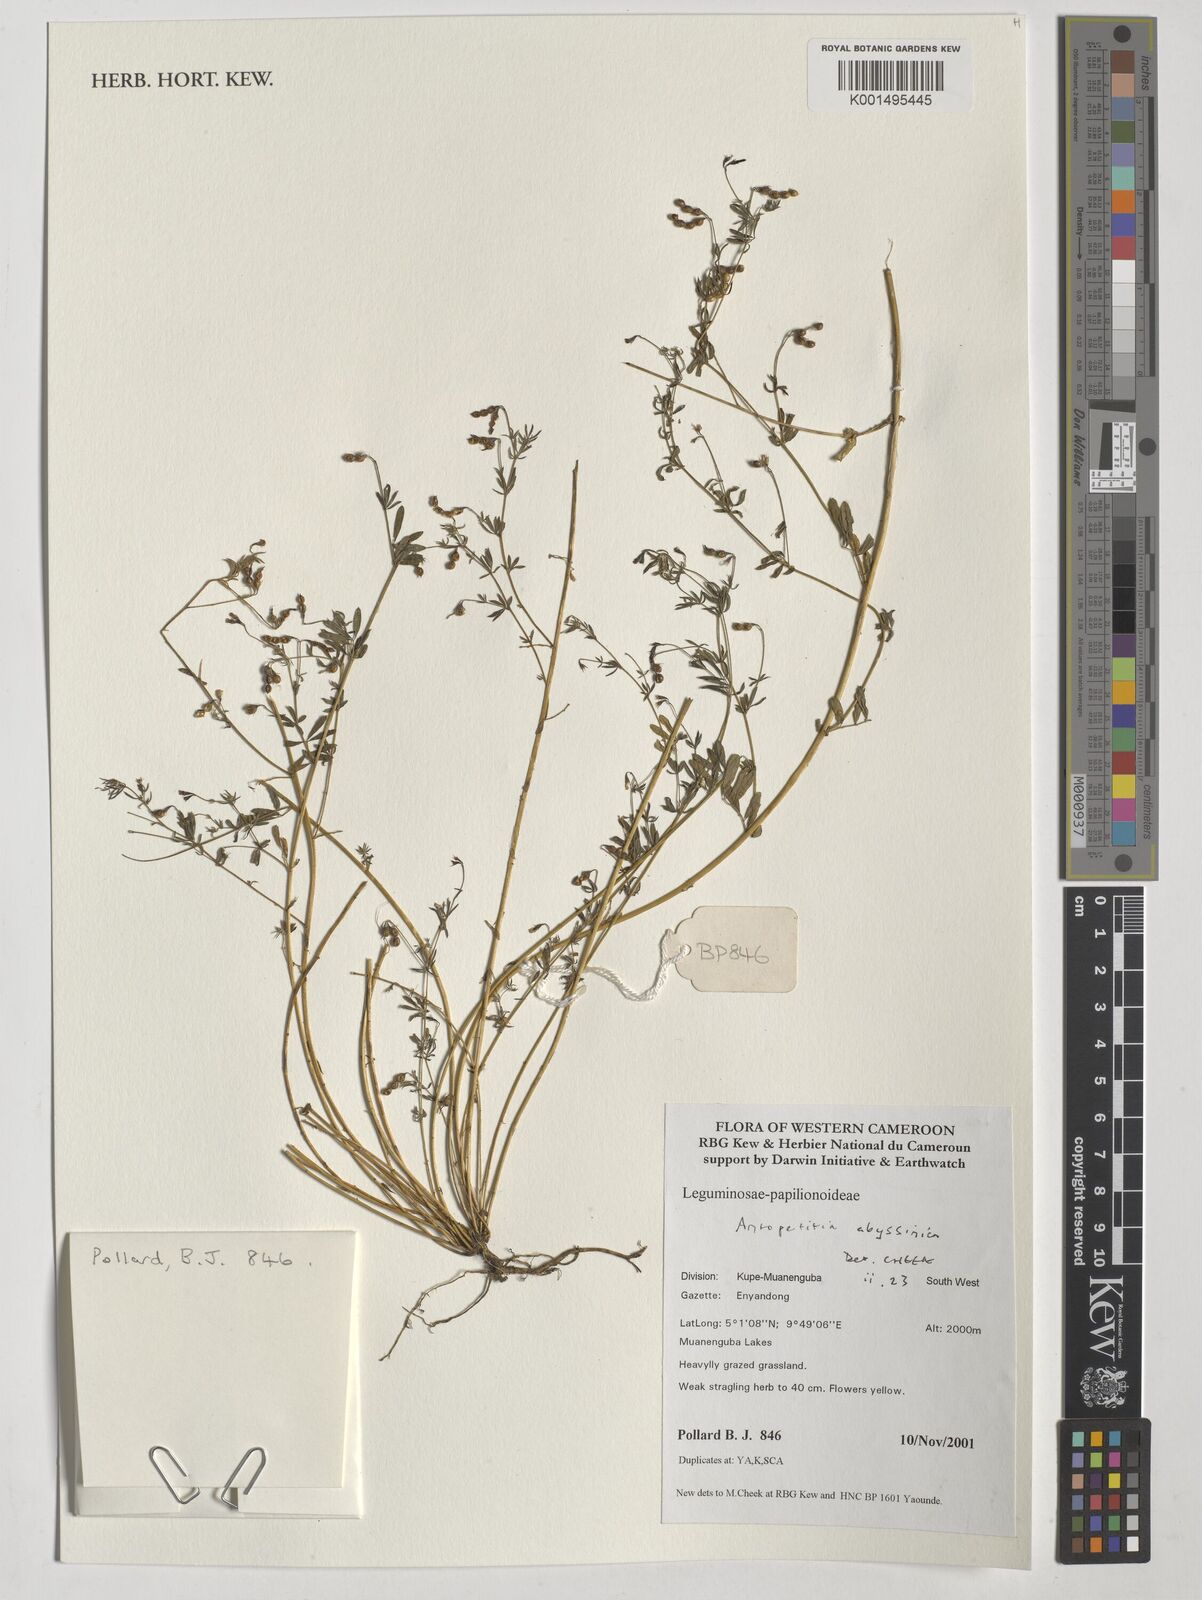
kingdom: Plantae
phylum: Tracheophyta
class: Magnoliopsida
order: Fabales
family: Fabaceae
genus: Antopetitia
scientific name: Antopetitia abyssinica
